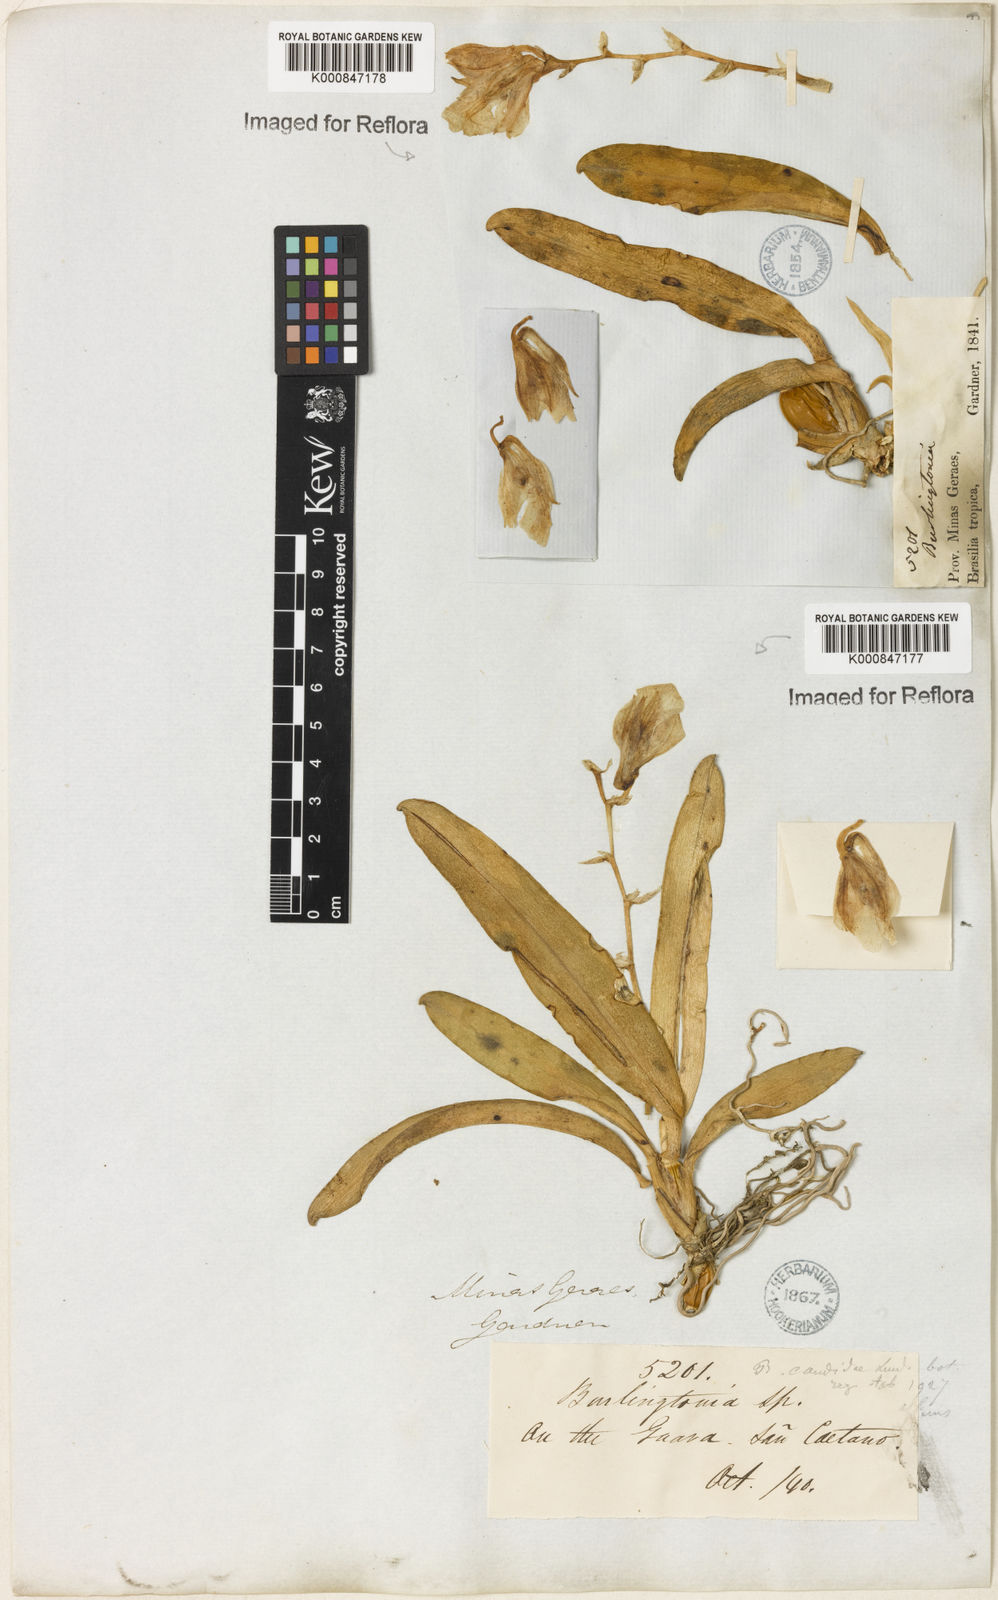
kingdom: Plantae
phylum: Tracheophyta
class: Liliopsida
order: Asparagales
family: Orchidaceae
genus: Rodriguezia
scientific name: Rodriguezia candida
